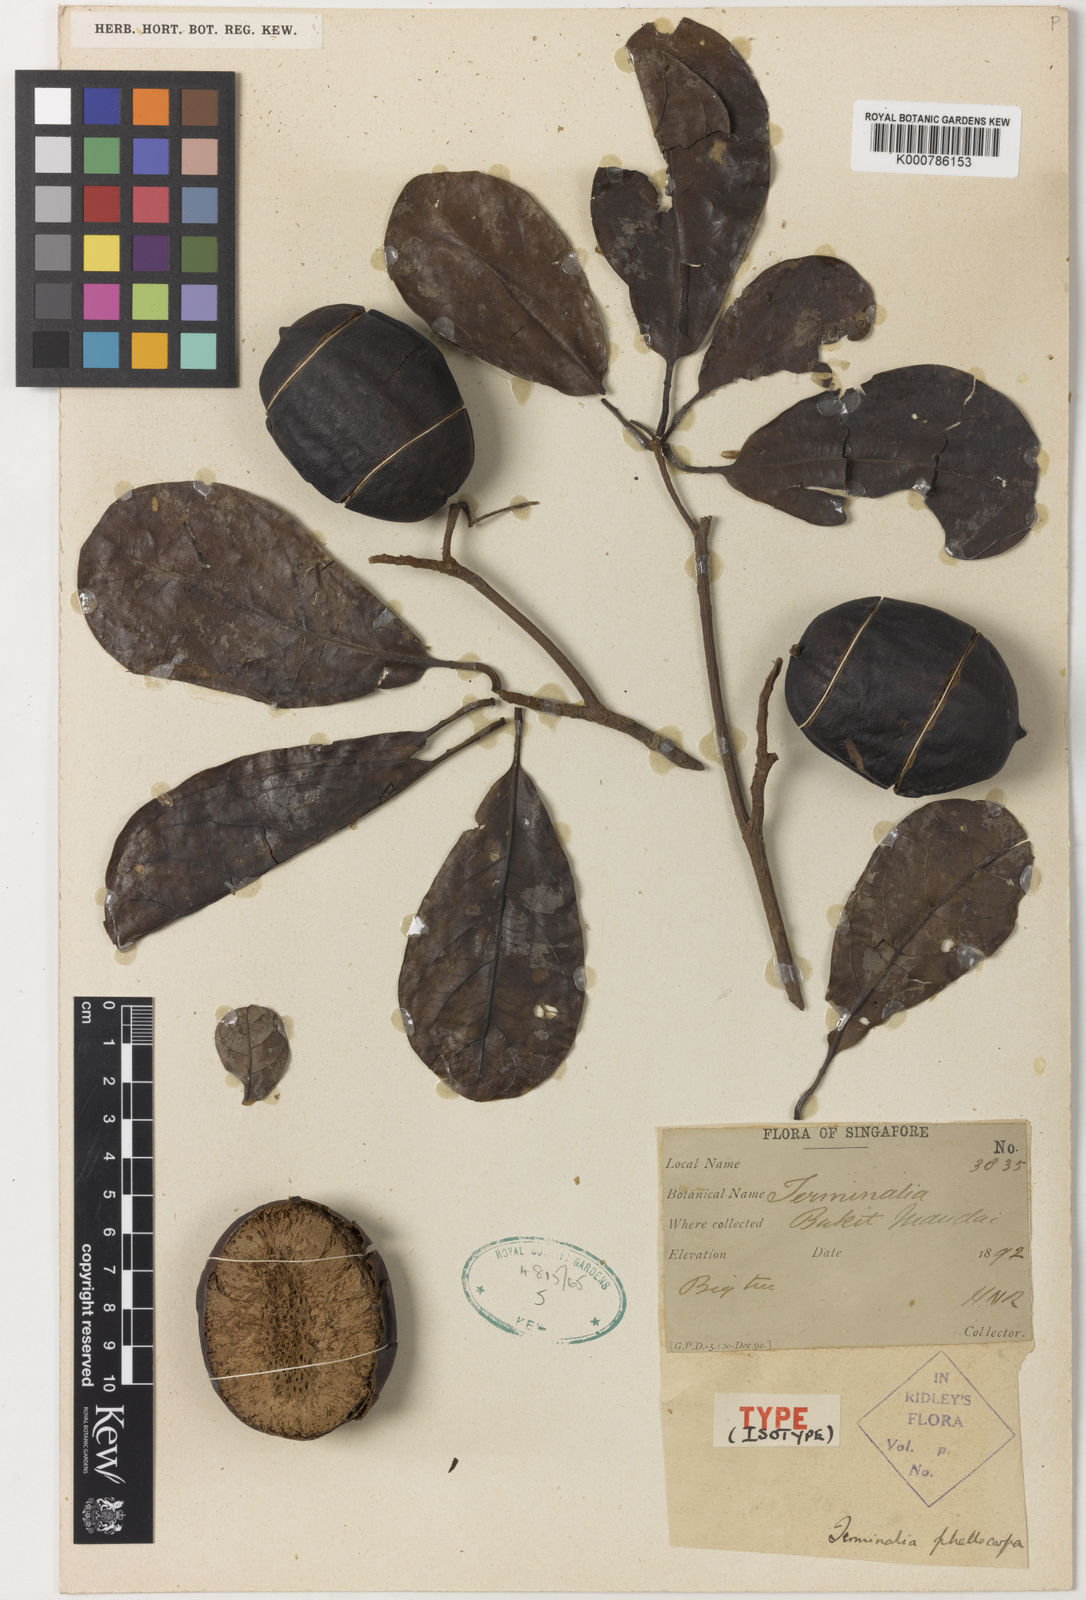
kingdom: Plantae
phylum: Tracheophyta
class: Magnoliopsida
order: Myrtales
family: Combretaceae
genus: Terminalia
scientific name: Terminalia phellocarpa
